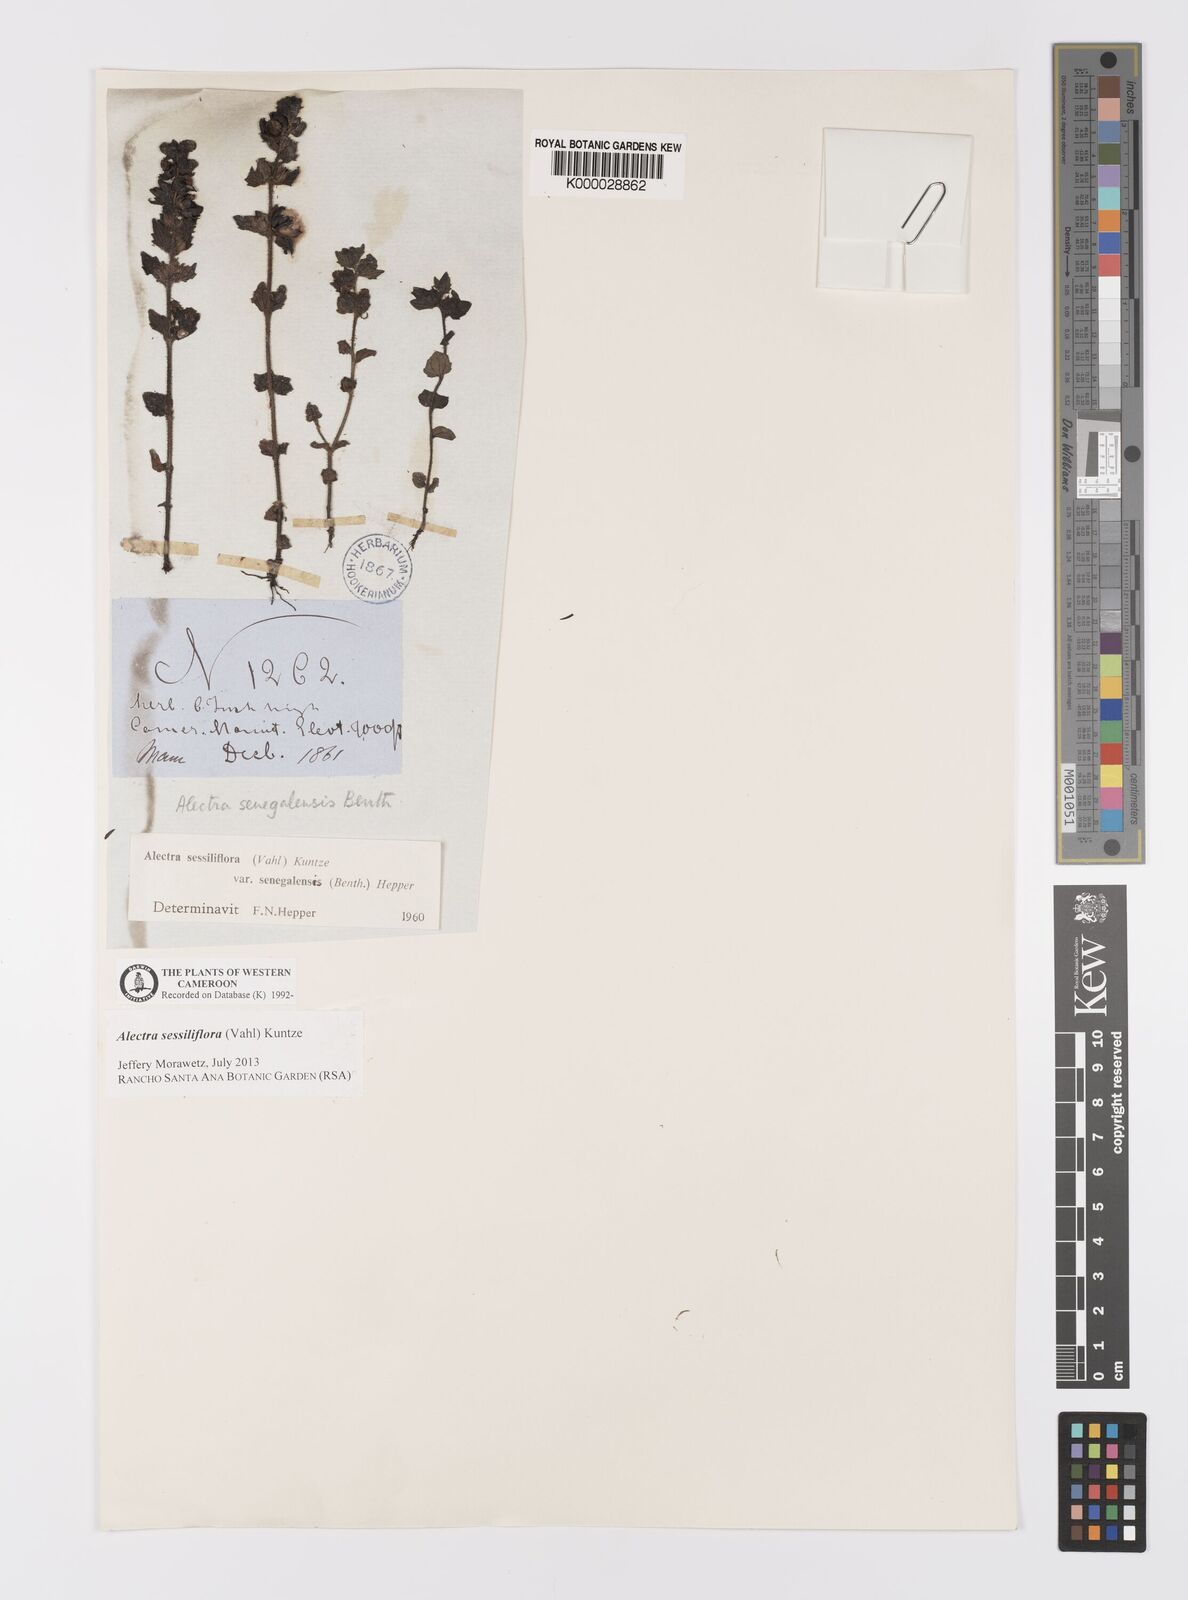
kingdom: Plantae
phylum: Tracheophyta
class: Magnoliopsida
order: Lamiales
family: Orobanchaceae
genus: Alectra
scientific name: Alectra sessiliflora
